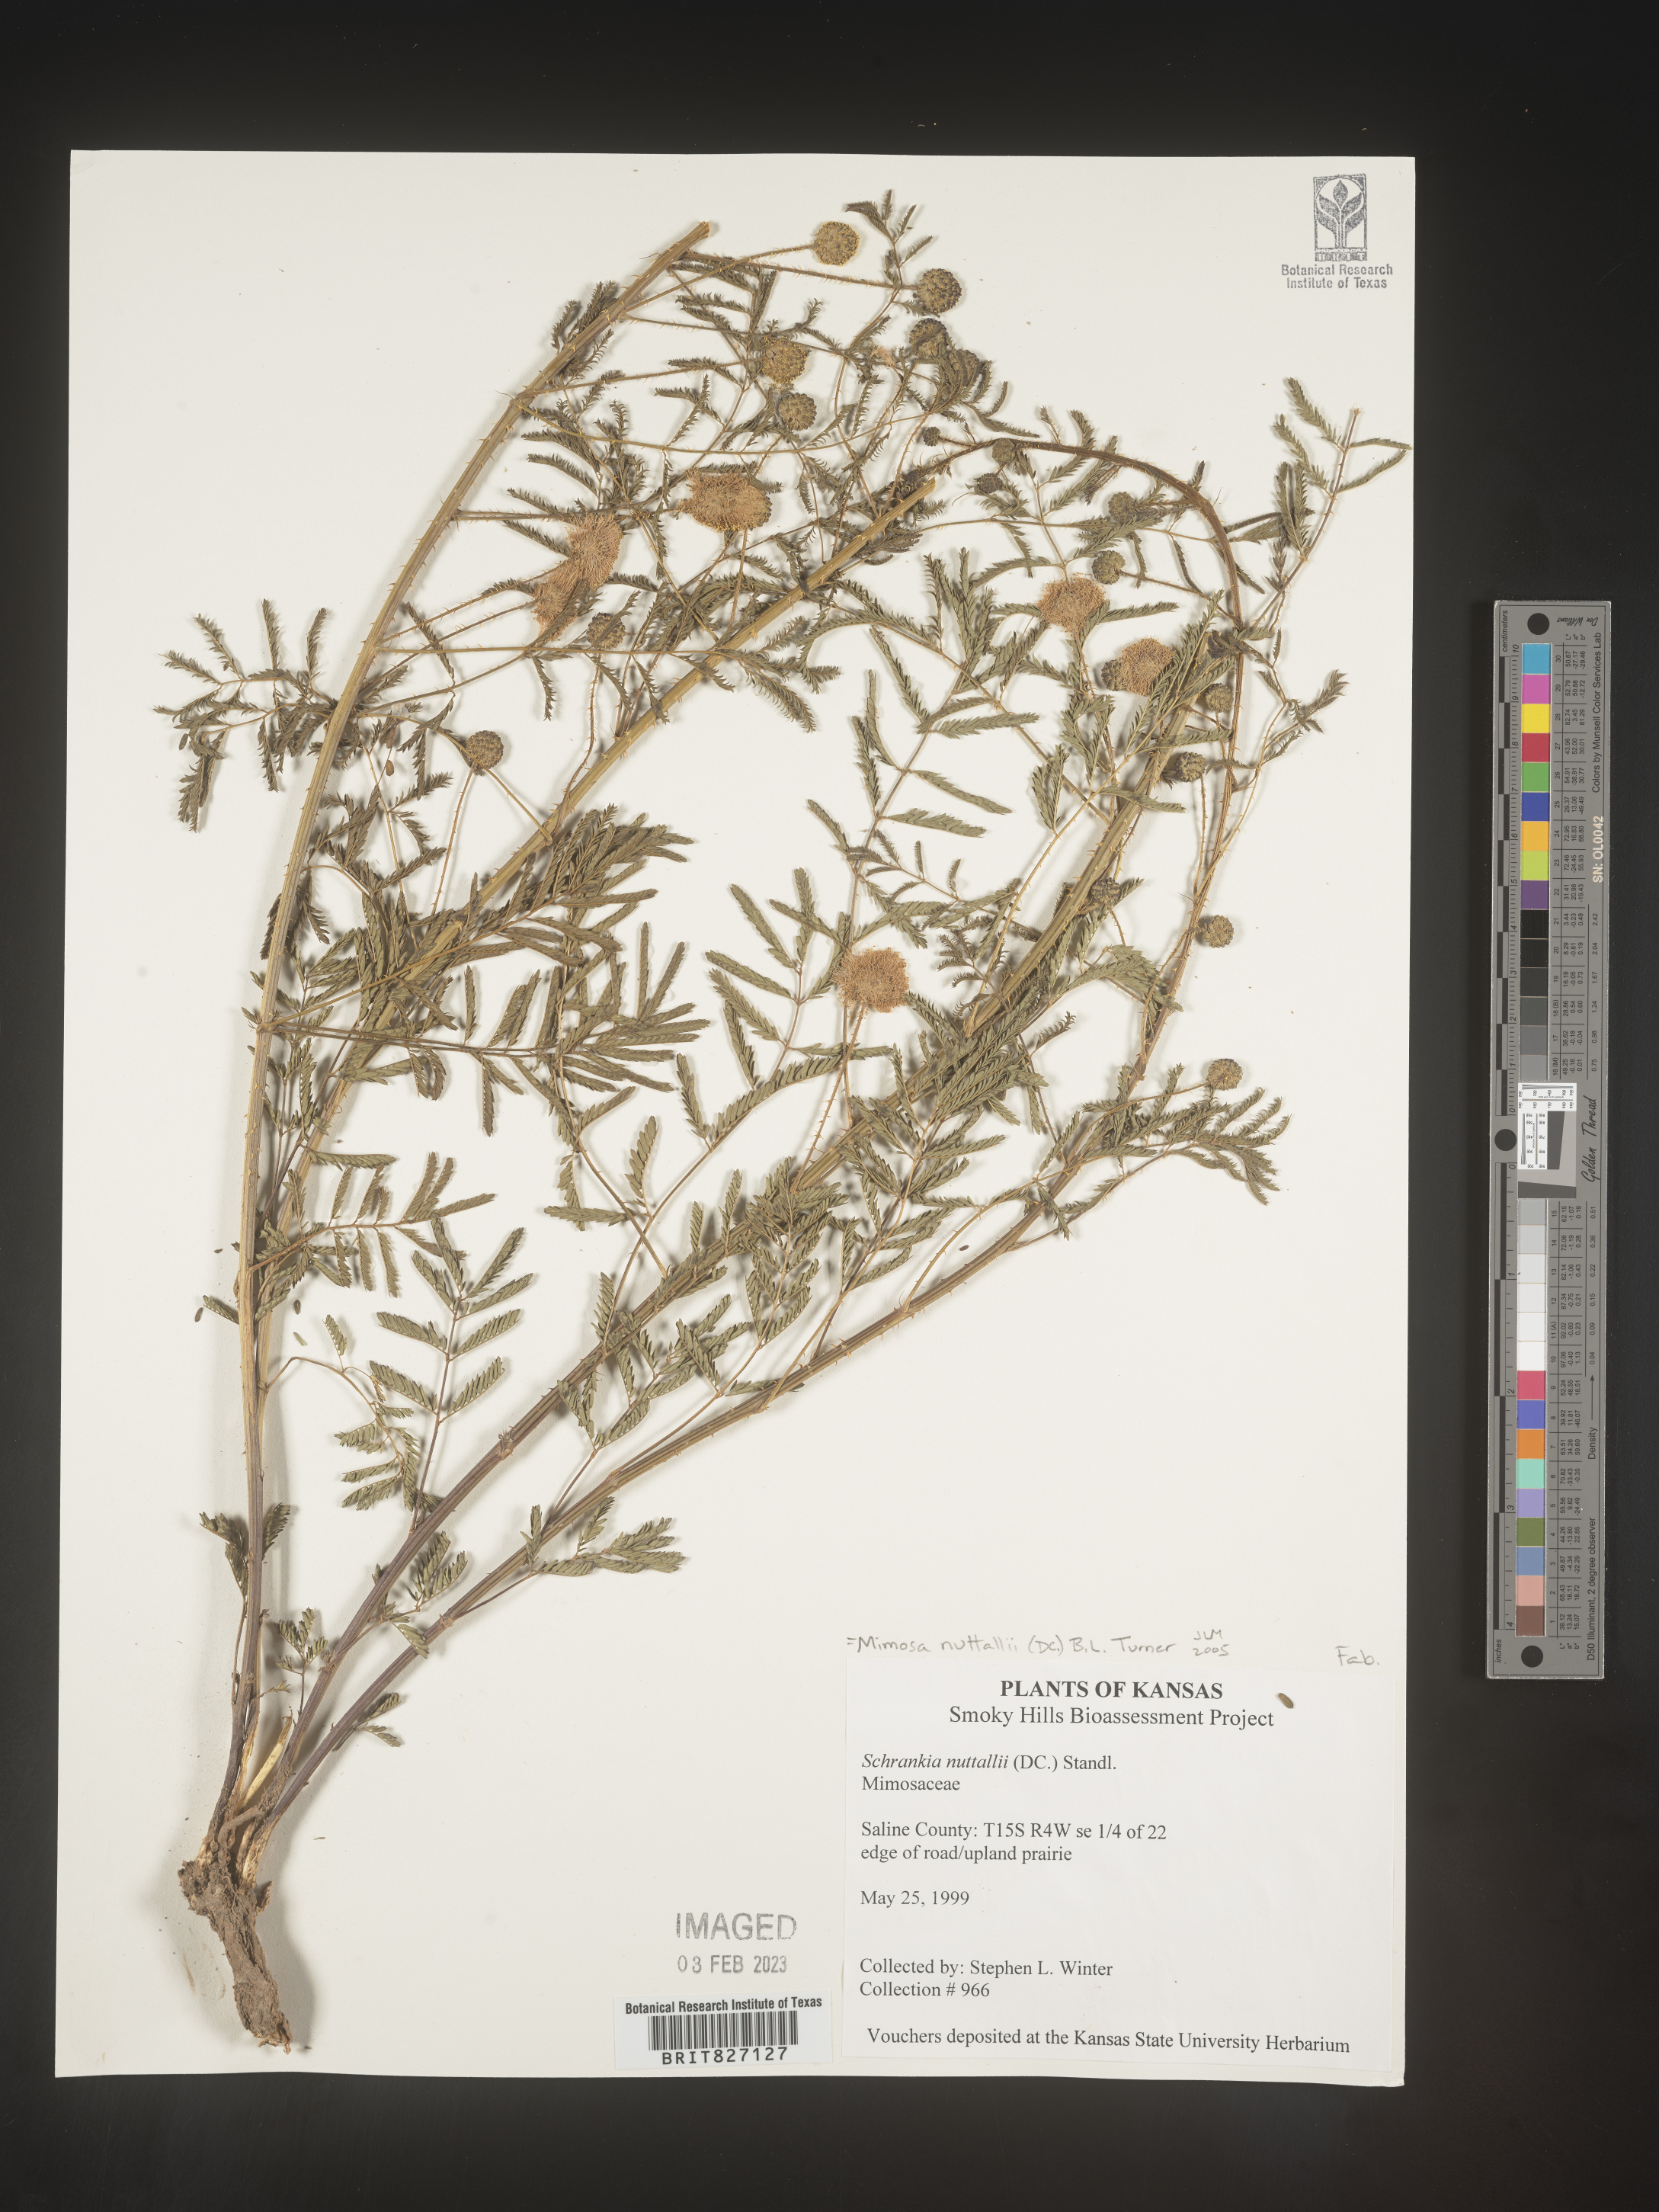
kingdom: Plantae
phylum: Tracheophyta
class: Magnoliopsida
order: Fabales
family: Fabaceae
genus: Mimosa
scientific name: Mimosa quadrivalvis
